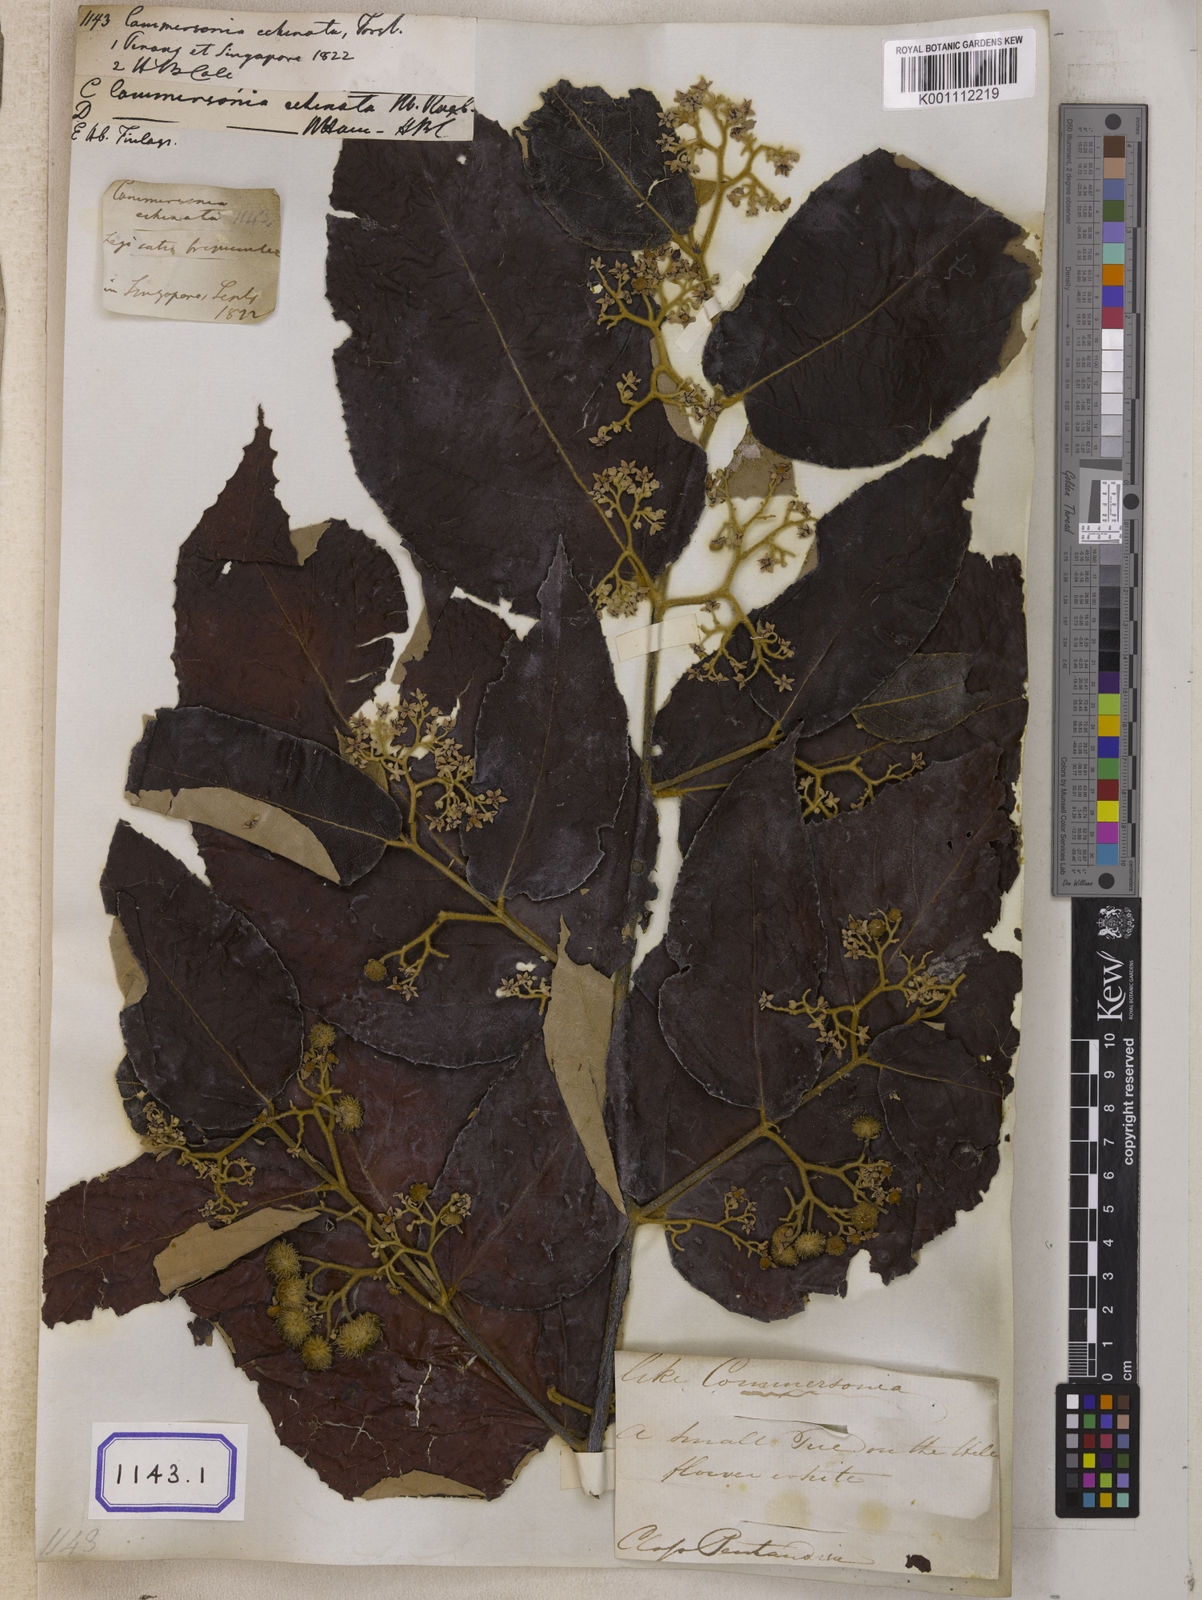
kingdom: Plantae
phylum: Tracheophyta
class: Magnoliopsida
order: Malvales
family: Malvaceae
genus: Commersonia
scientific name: Commersonia bartramia
